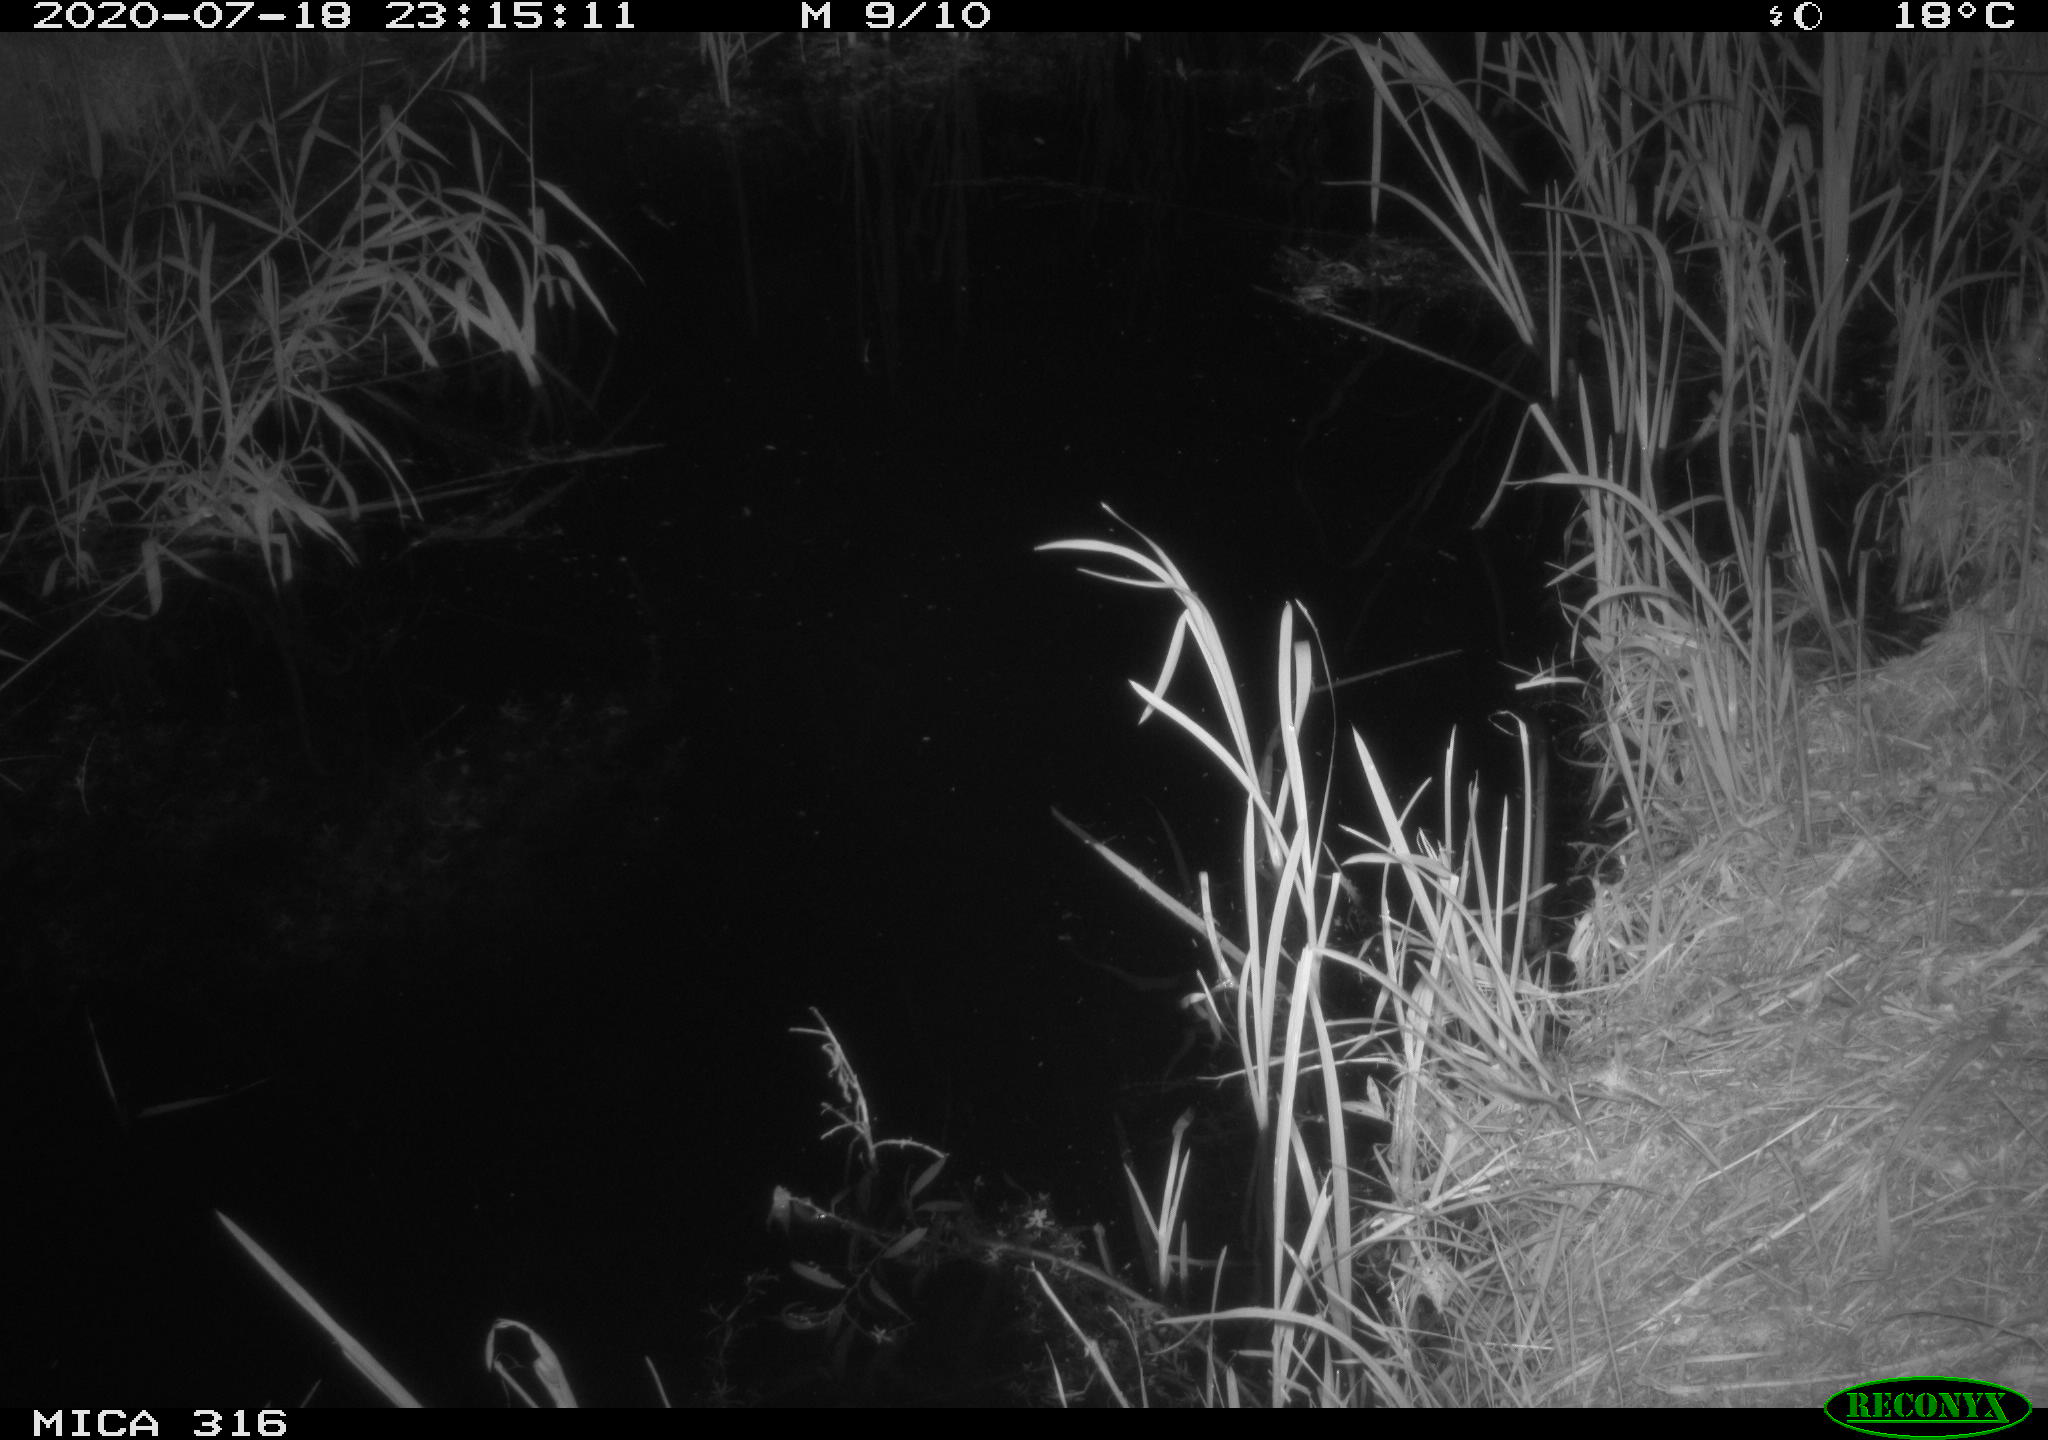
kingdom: Animalia
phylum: Chordata
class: Mammalia
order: Rodentia
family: Muridae
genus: Rattus
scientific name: Rattus norvegicus
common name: Brown rat
